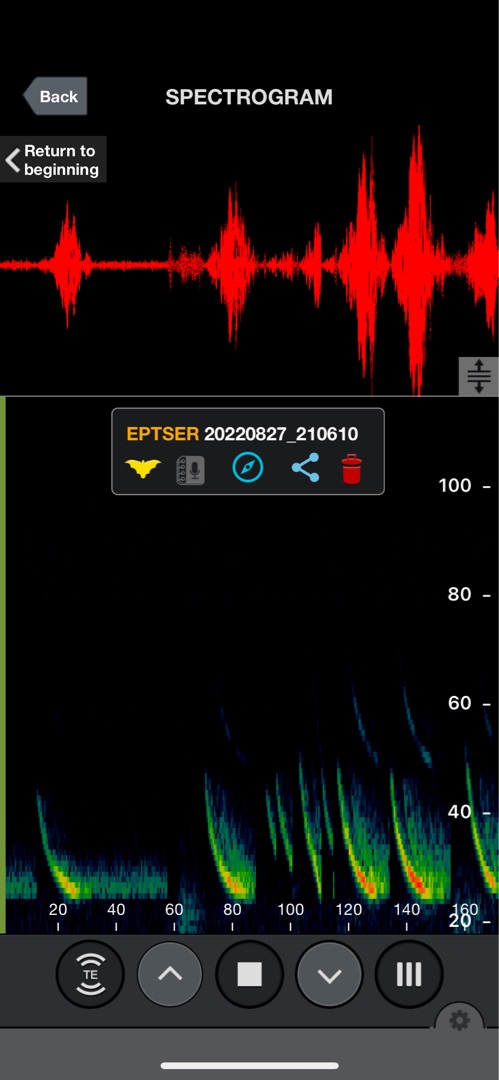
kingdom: Animalia
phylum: Chordata
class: Mammalia
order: Chiroptera
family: Vespertilionidae
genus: Eptesicus
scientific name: Eptesicus serotinus
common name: Sydflagermus
